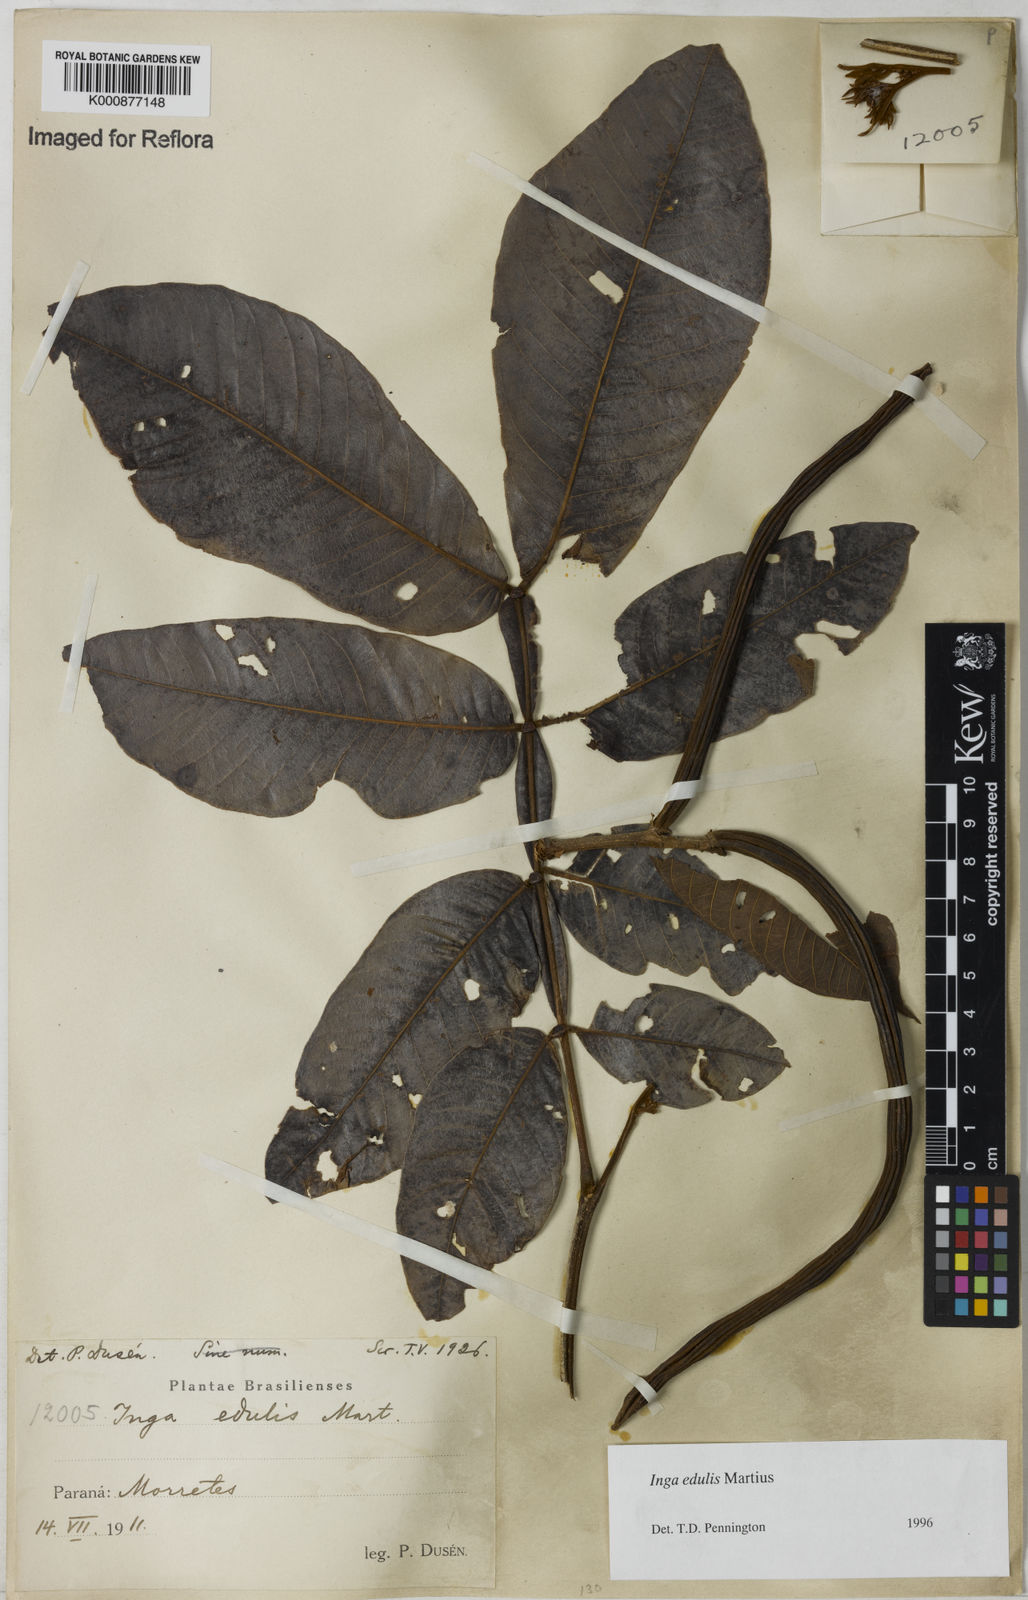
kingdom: Plantae
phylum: Tracheophyta
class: Magnoliopsida
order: Fabales
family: Fabaceae
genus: Inga
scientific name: Inga edulis
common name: Ice cream bean
